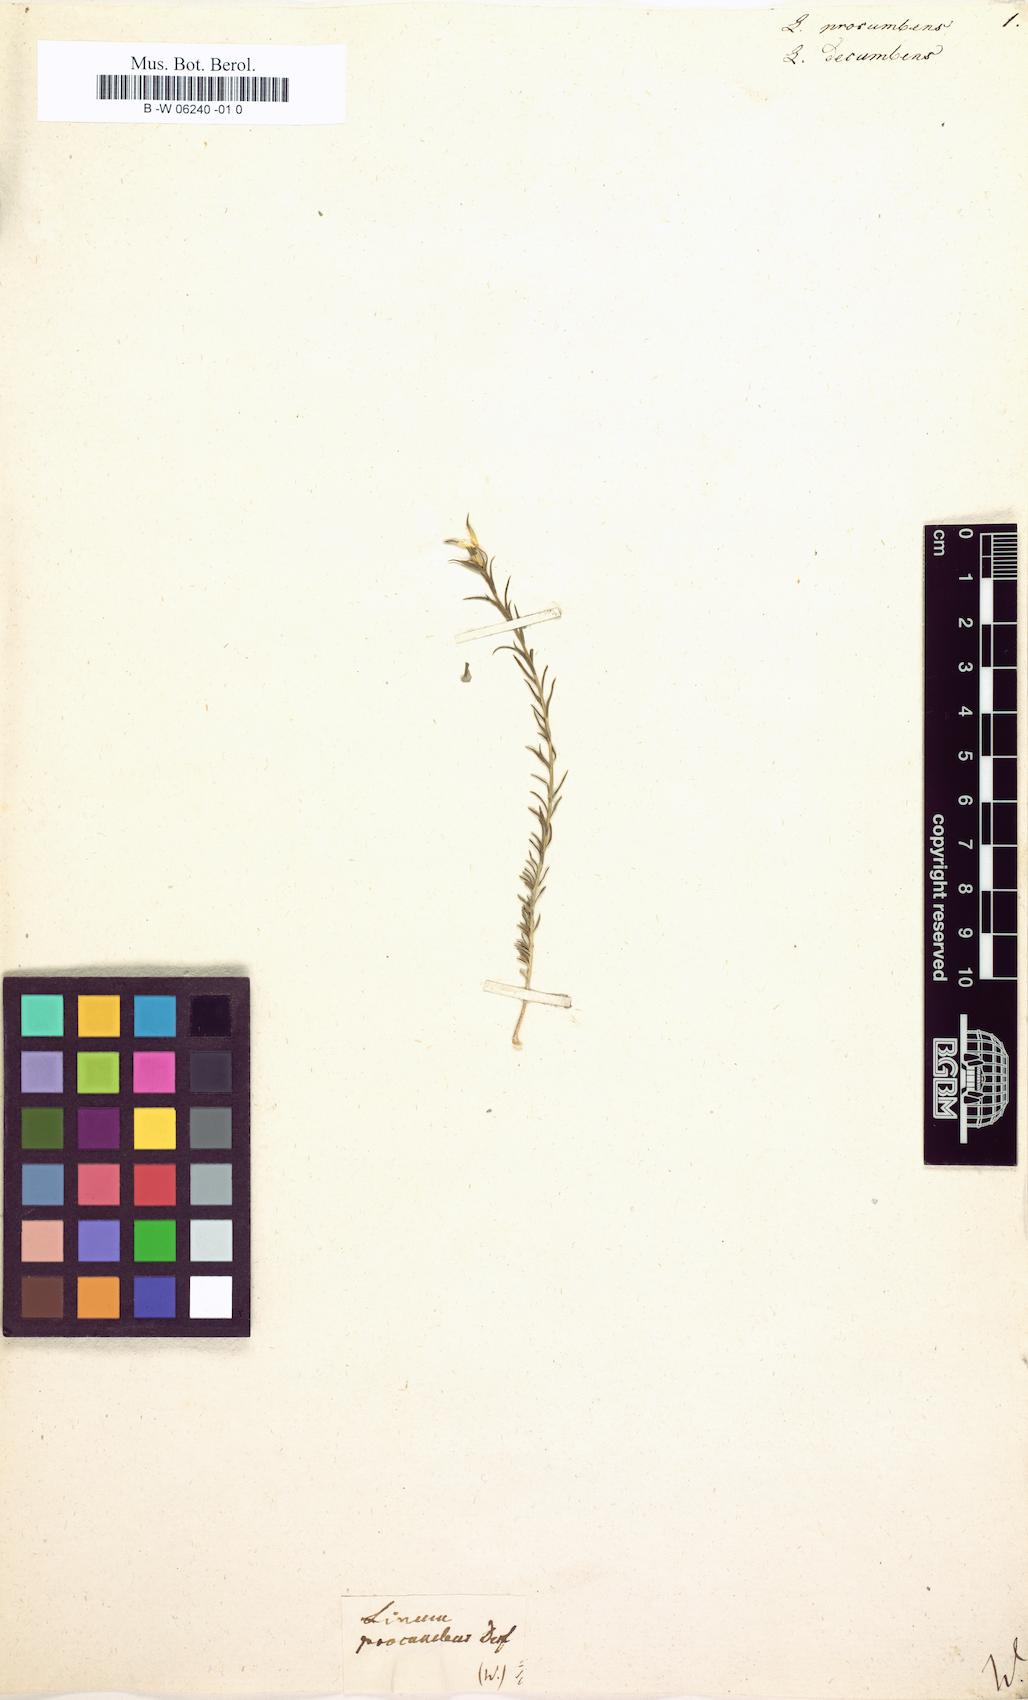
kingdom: Plantae
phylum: Tracheophyta
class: Magnoliopsida
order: Malpighiales
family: Linaceae
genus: Linum
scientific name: Linum procumbens
